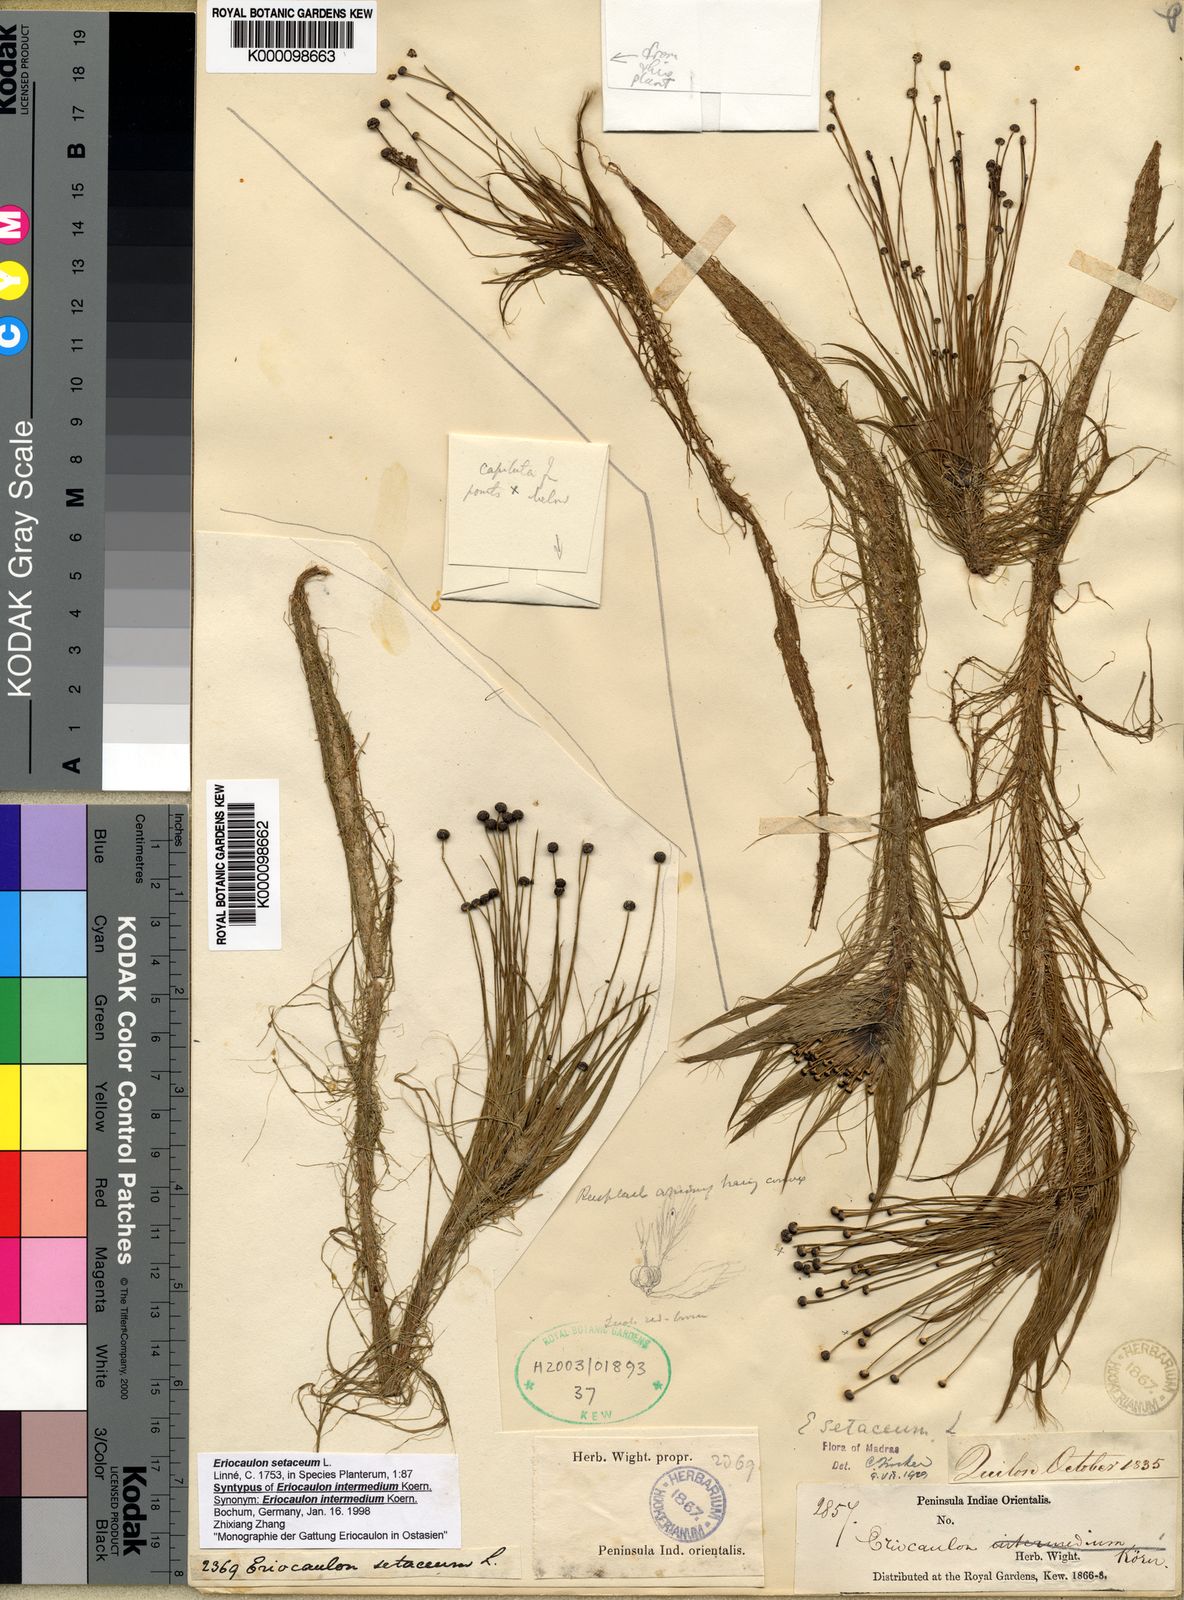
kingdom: Plantae
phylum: Tracheophyta
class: Liliopsida
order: Poales
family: Eriocaulaceae
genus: Eriocaulon
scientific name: Eriocaulon setaceum
